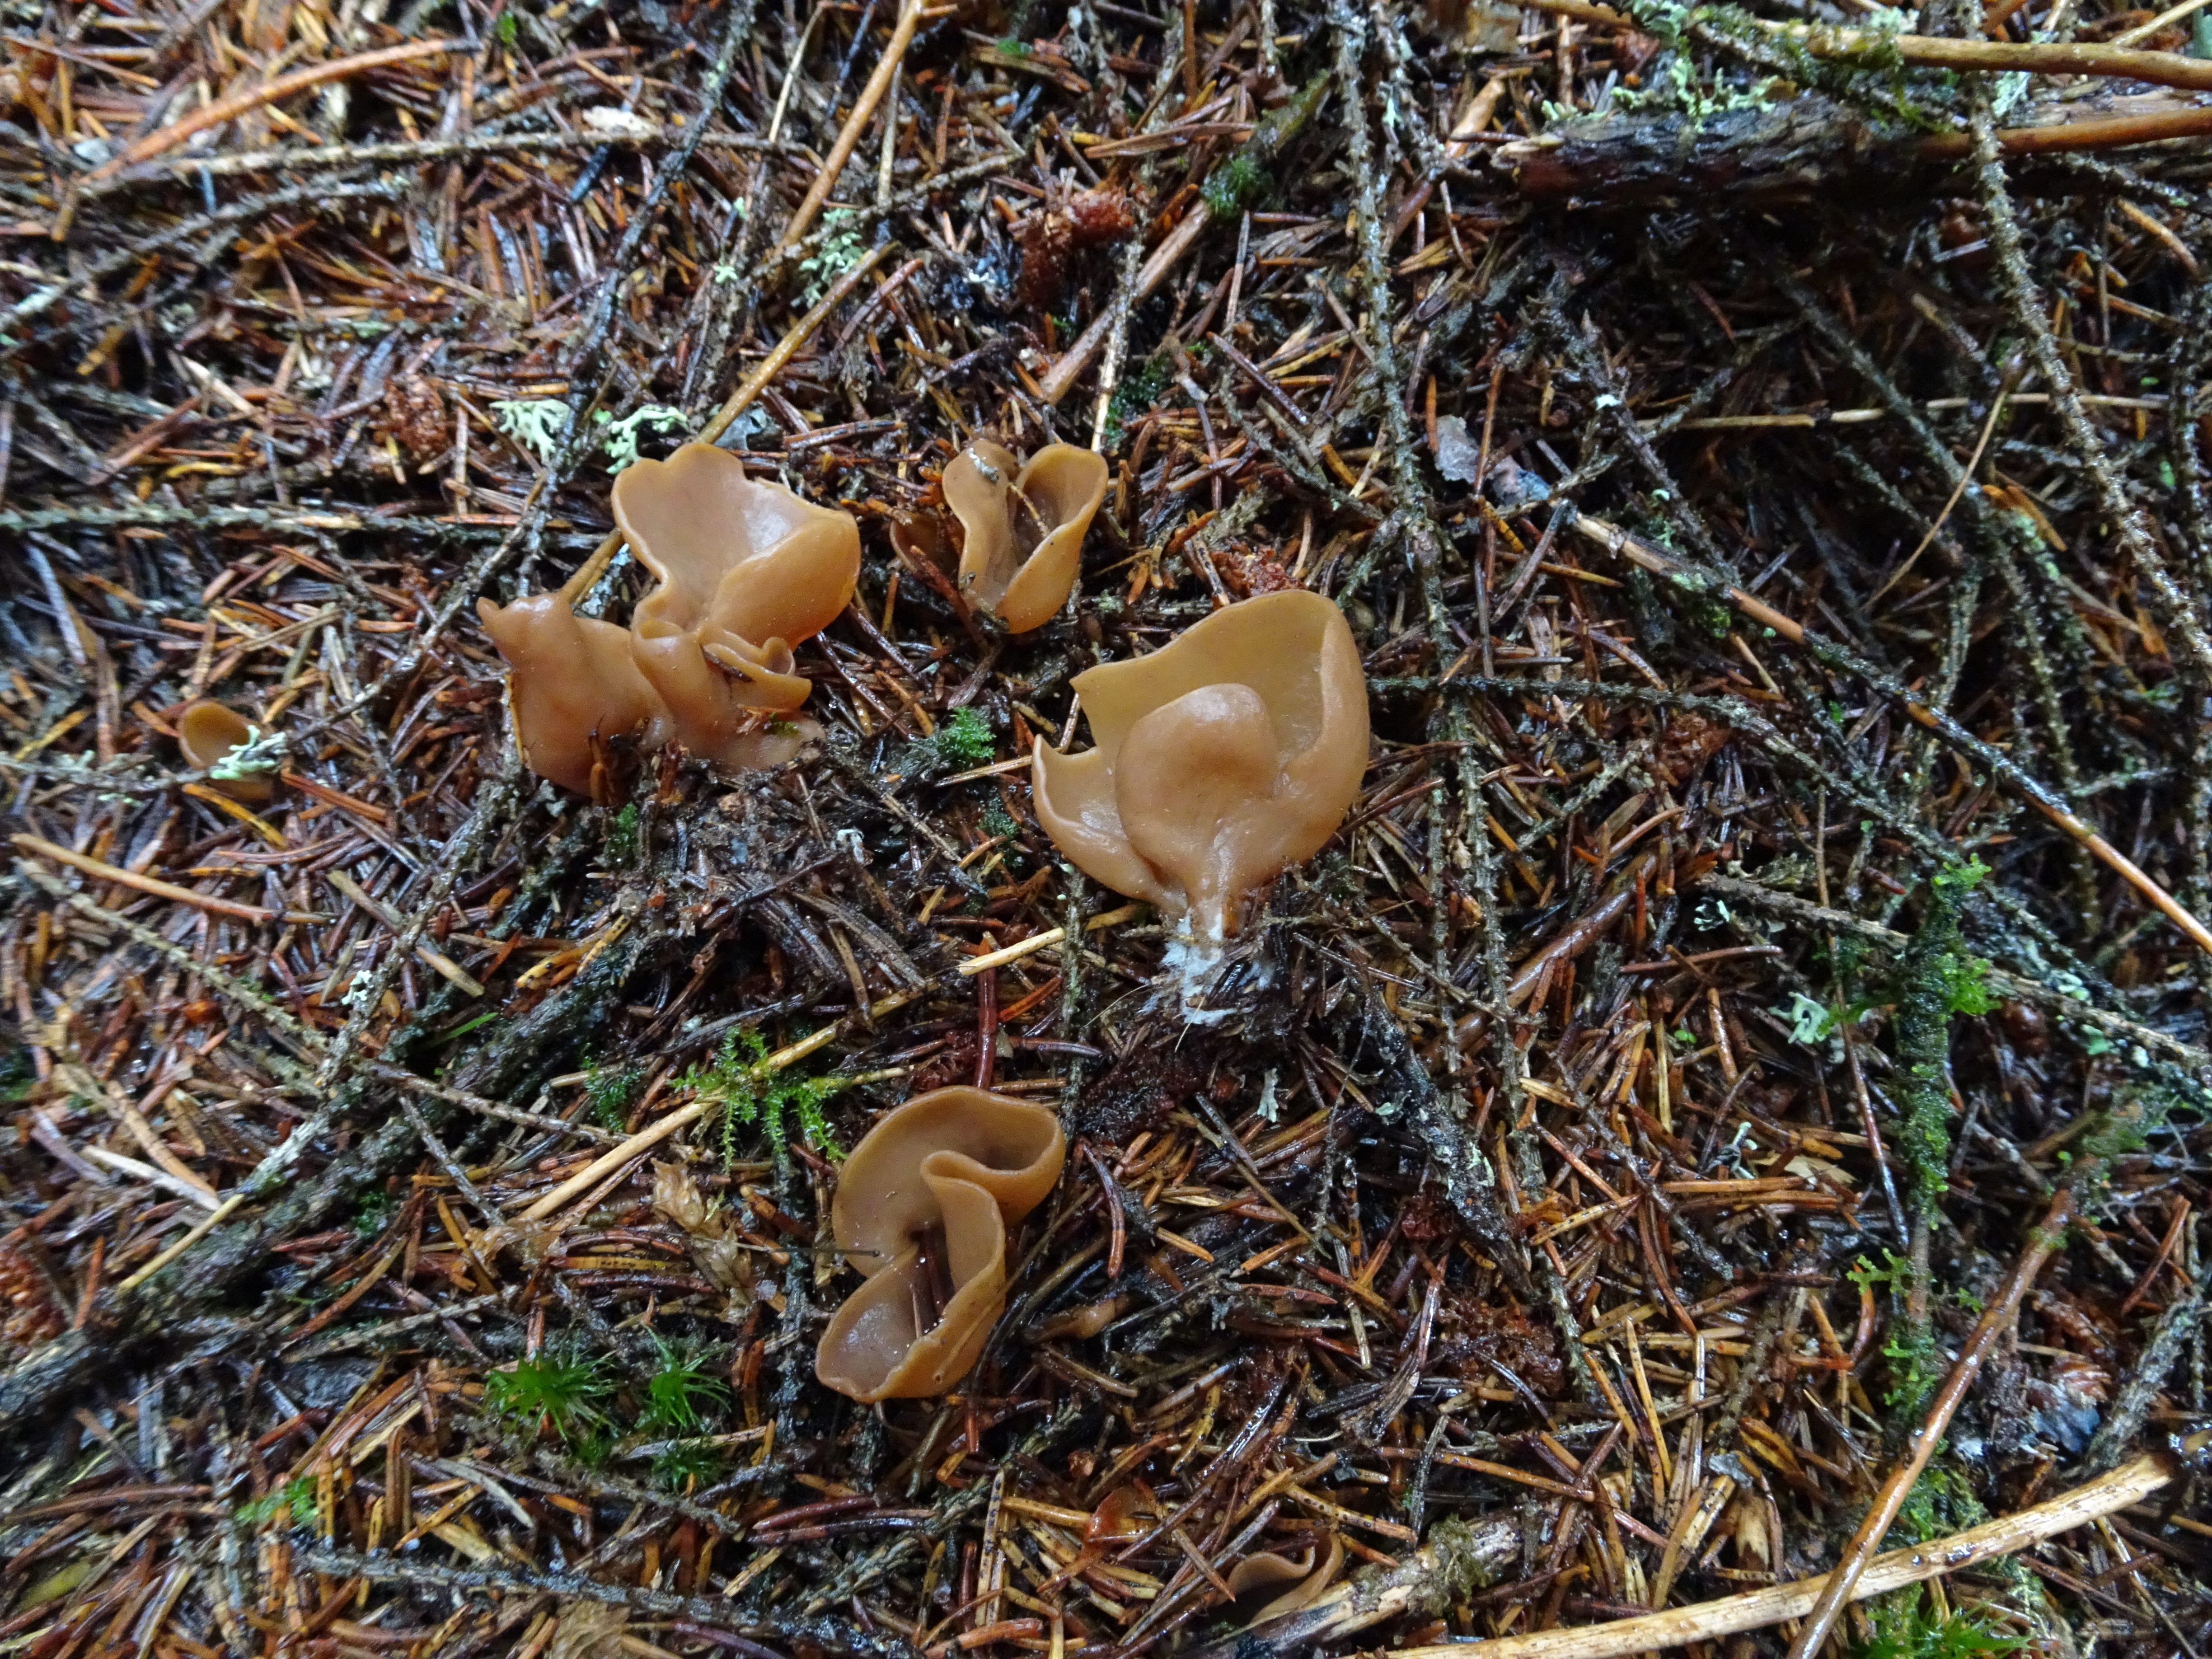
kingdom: Fungi
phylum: Ascomycota
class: Pezizomycetes
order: Pezizales
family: Otideaceae
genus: Otidea
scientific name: Otidea leporina
